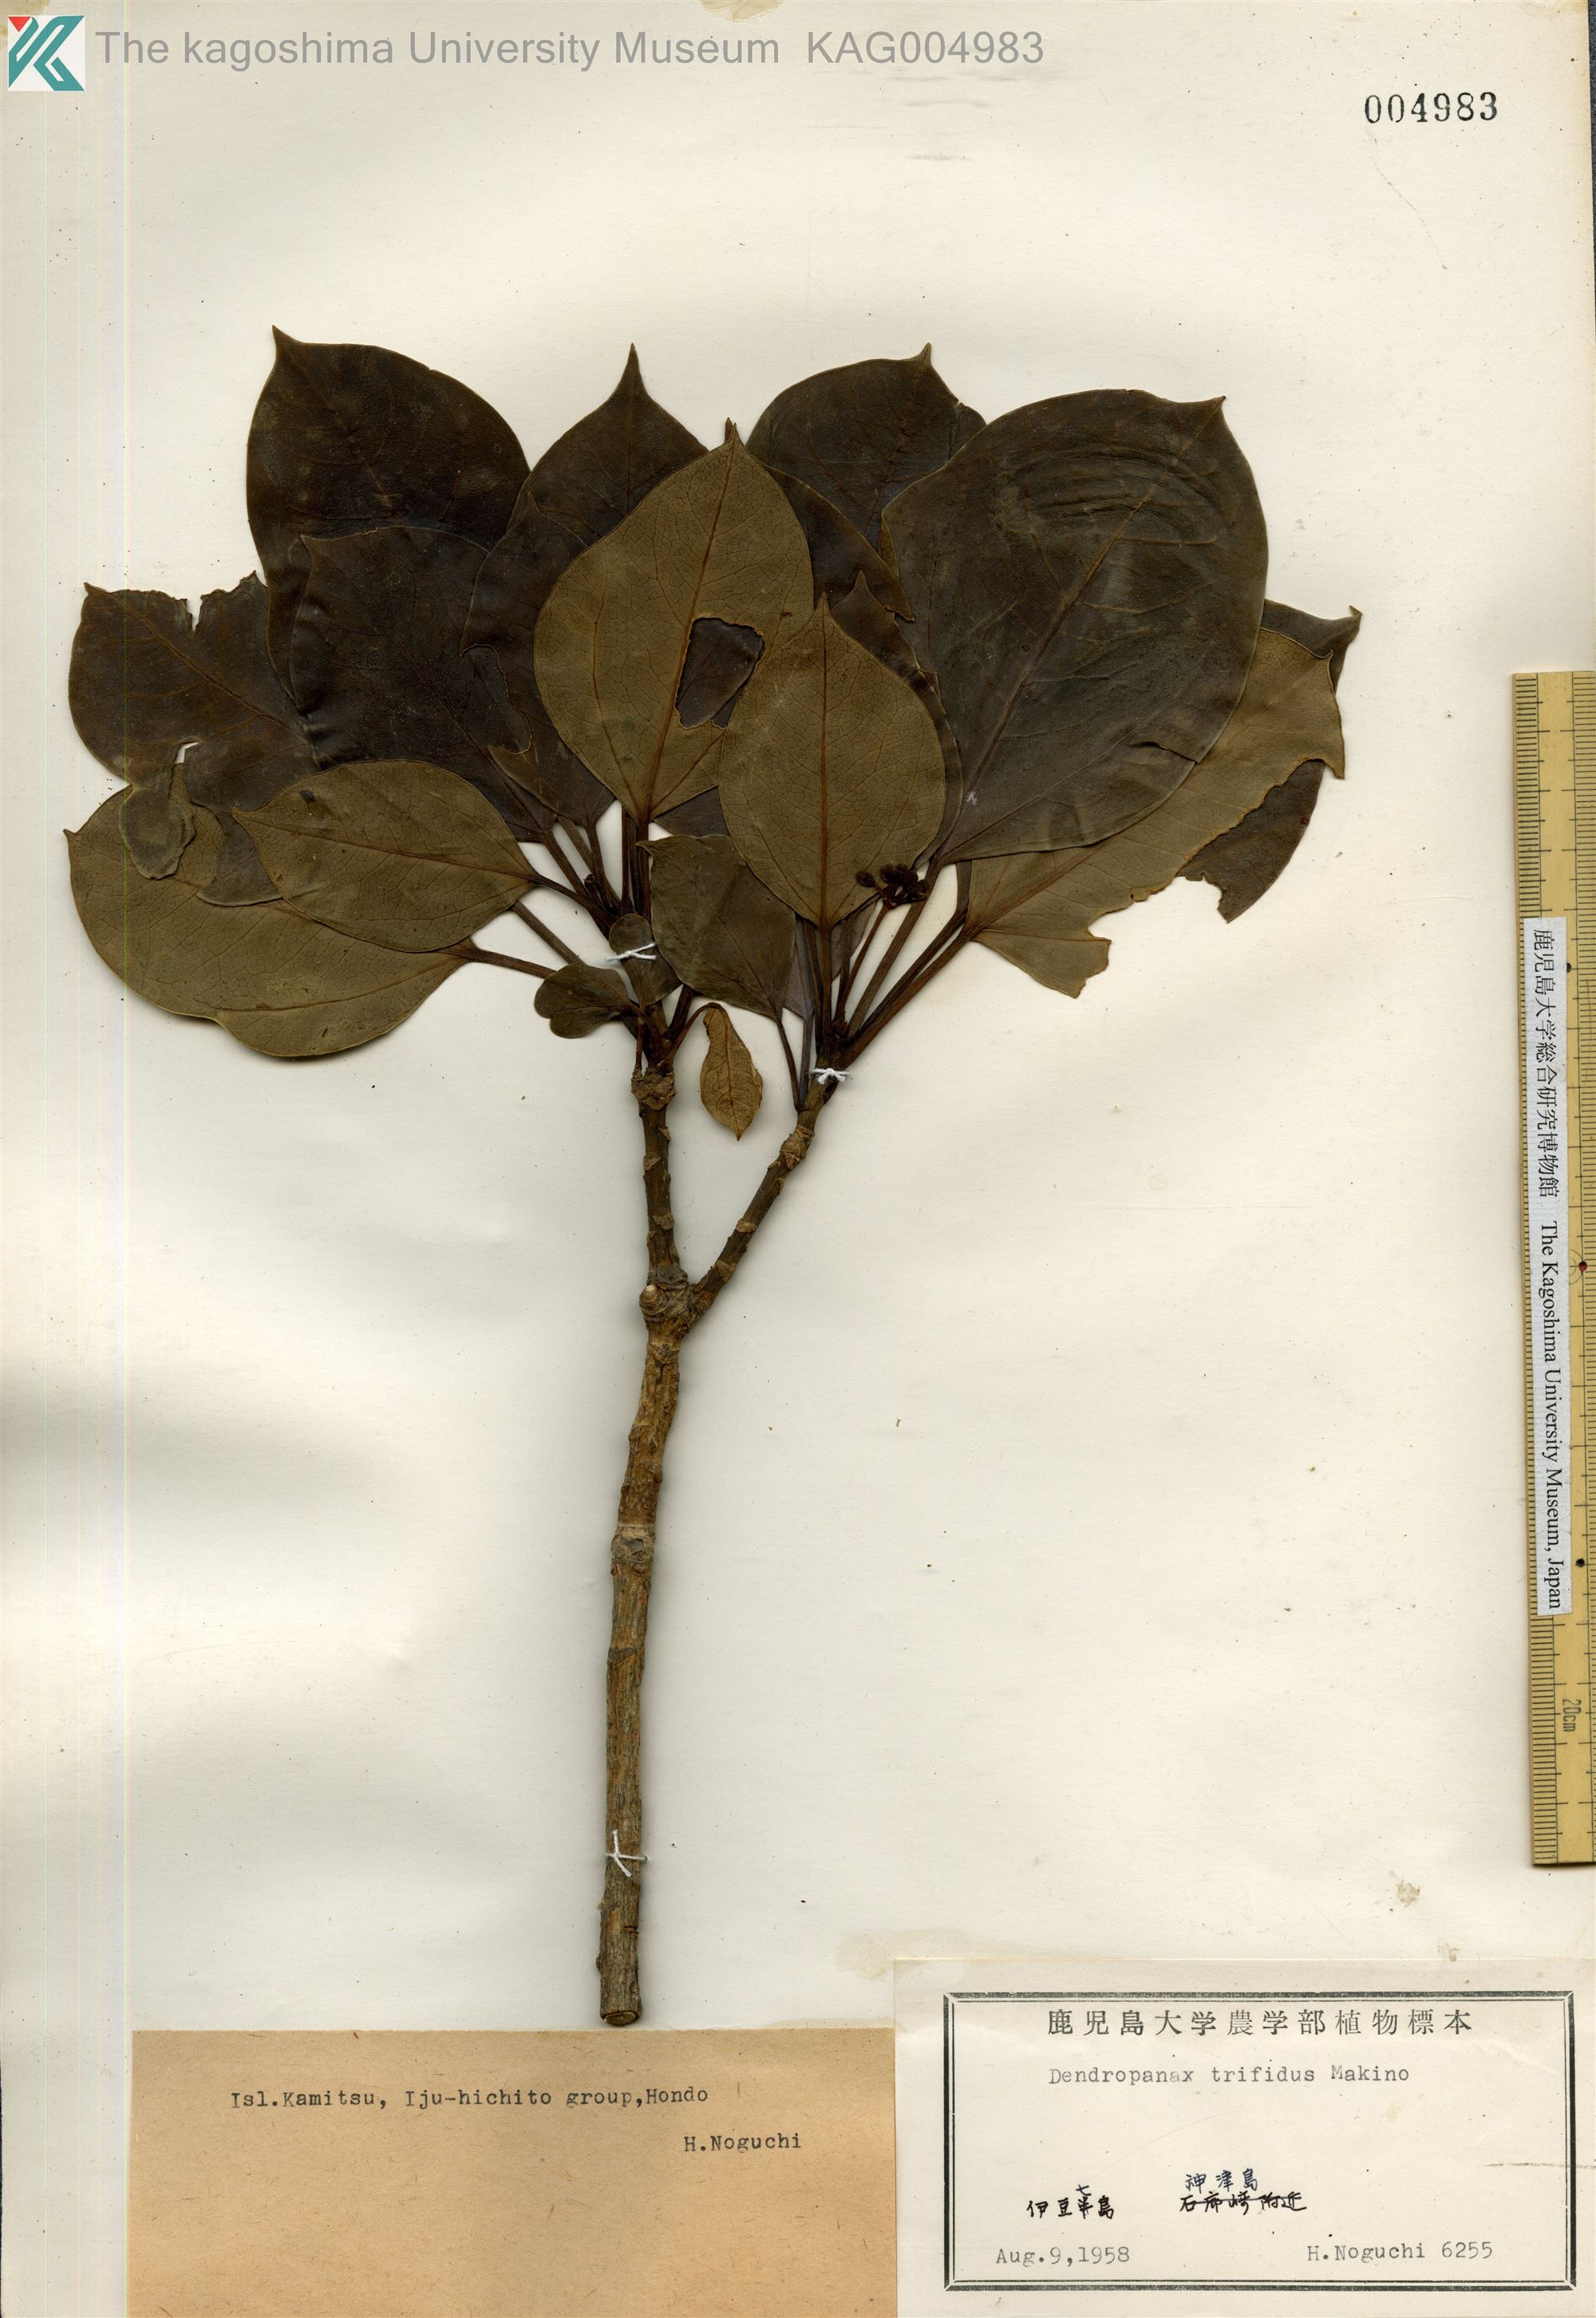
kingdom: Plantae
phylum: Tracheophyta
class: Magnoliopsida
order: Apiales
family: Araliaceae
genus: Dendropanax
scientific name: Dendropanax trifidus
